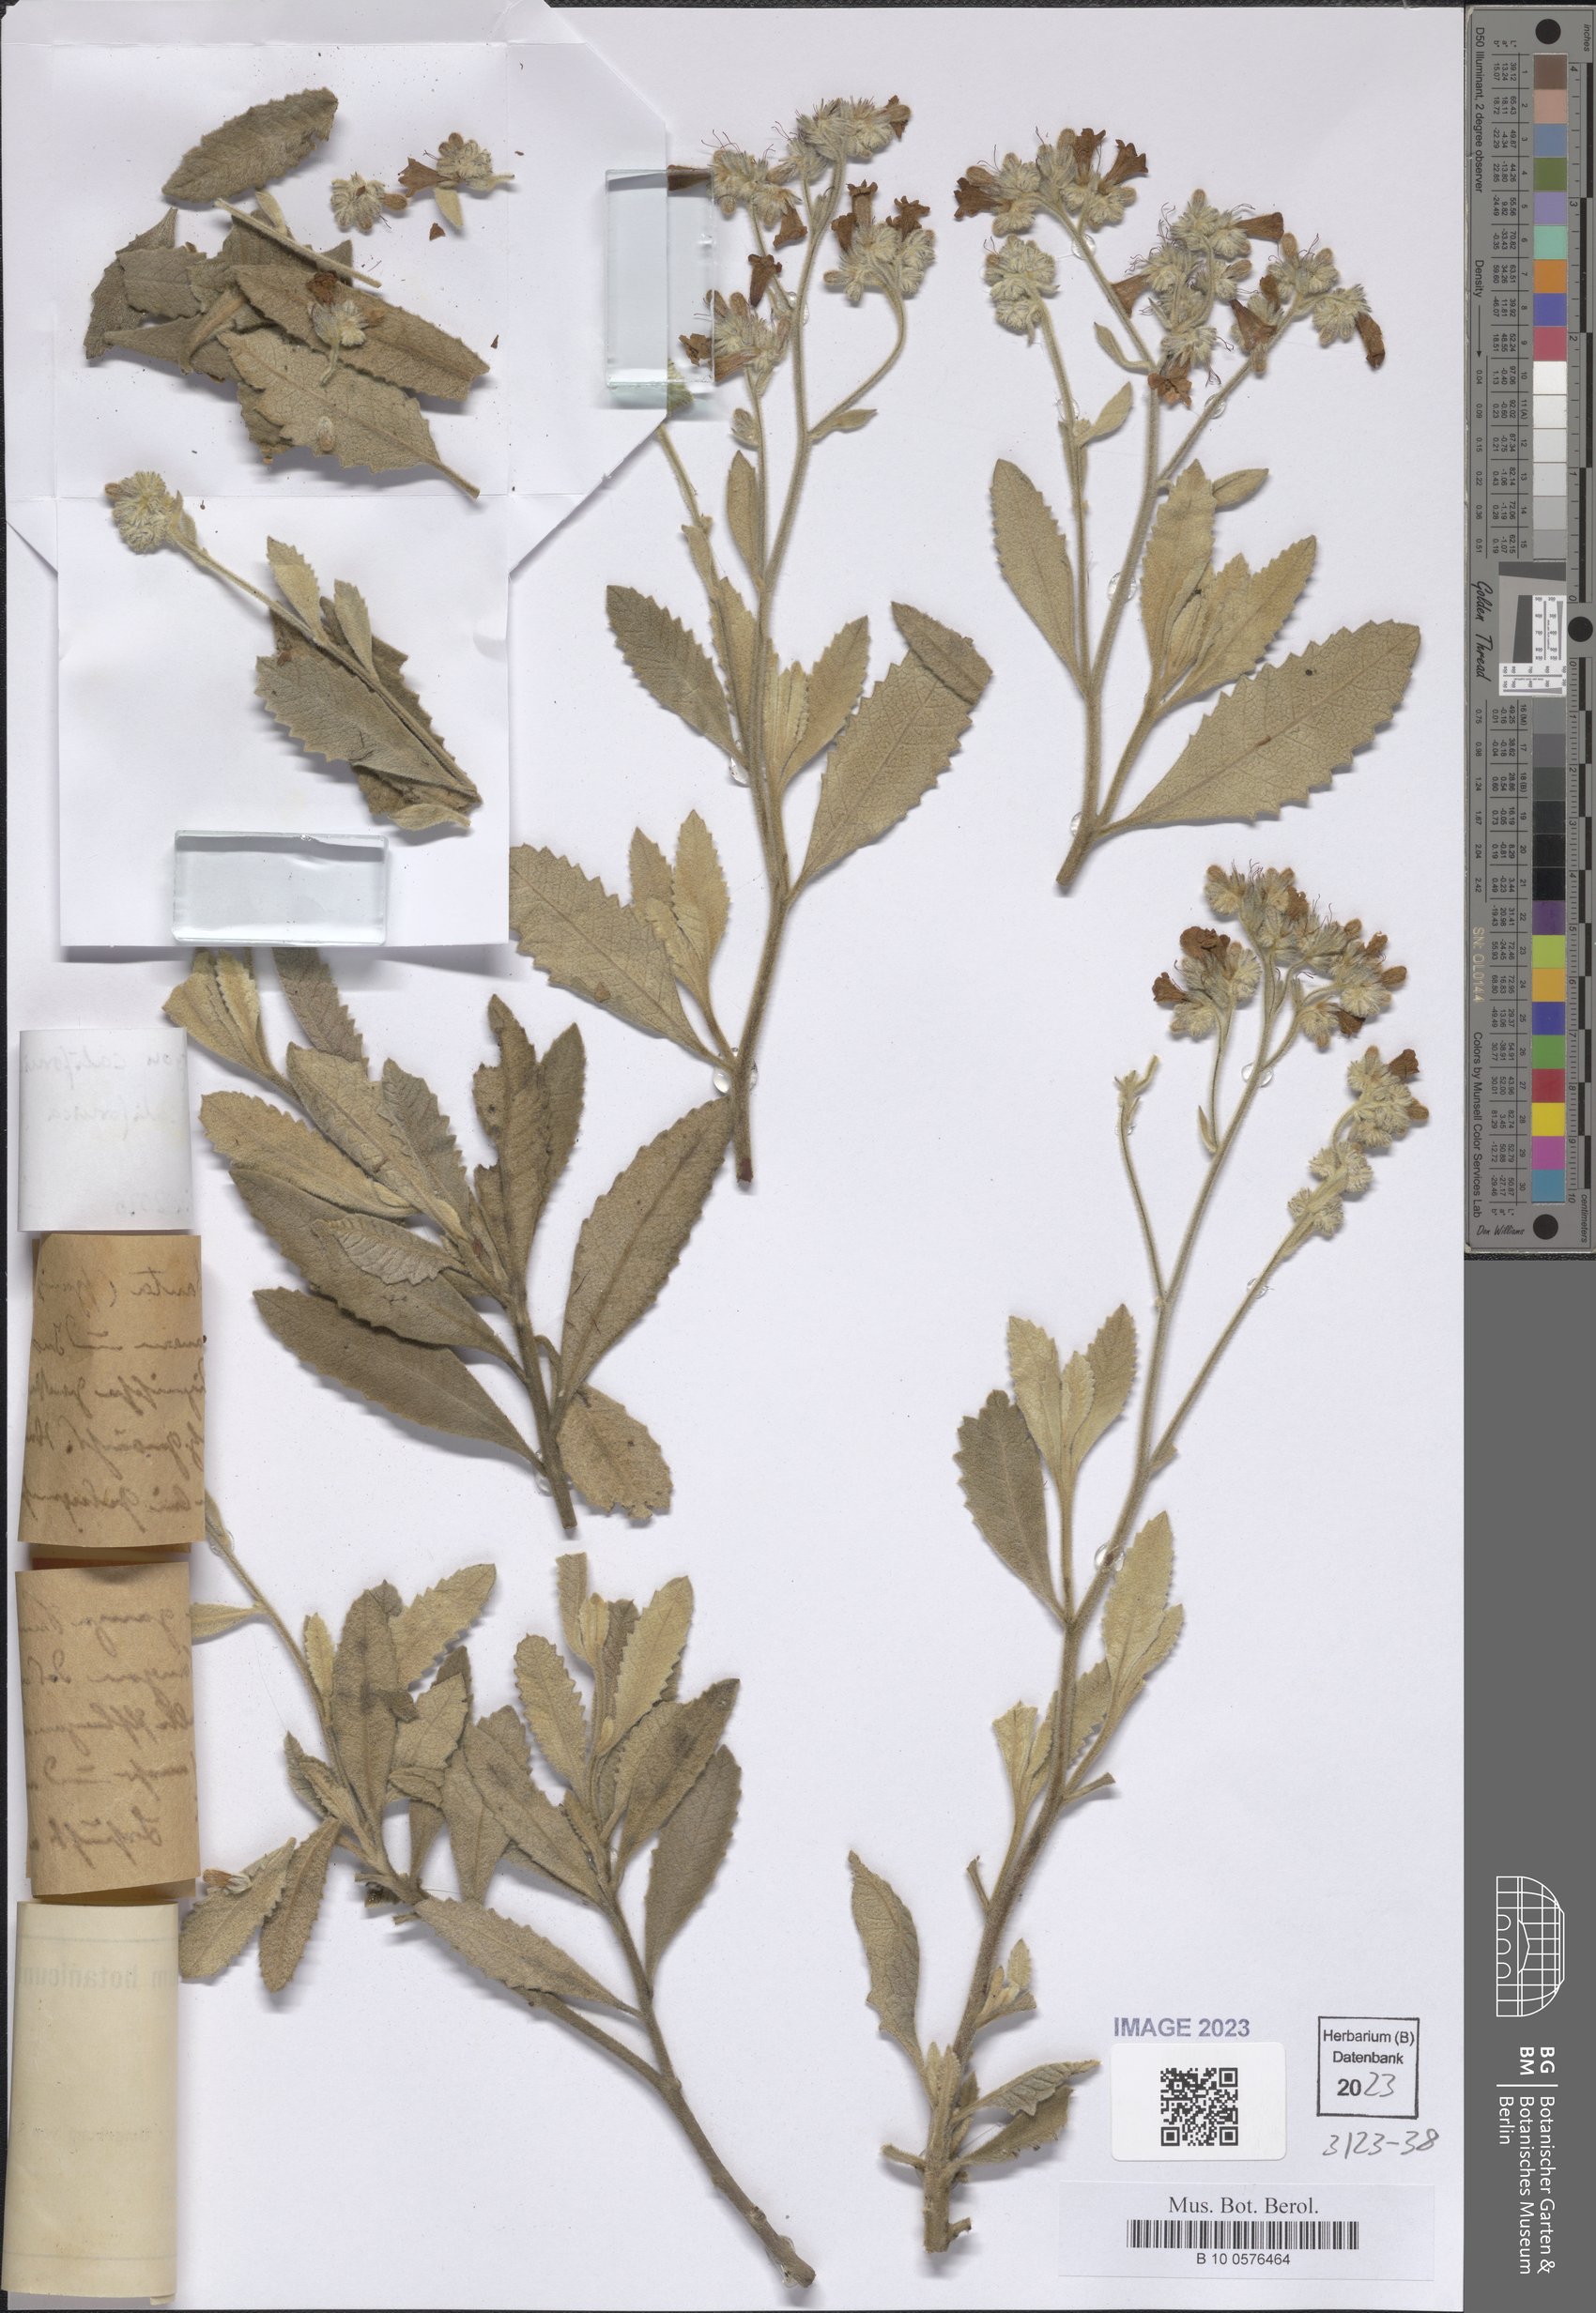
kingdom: Plantae
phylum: Tracheophyta
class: Magnoliopsida
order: Boraginales
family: Namaceae
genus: Eriodictyon
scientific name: Eriodictyon crassifolium
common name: Thick-leaf yerba-santa
